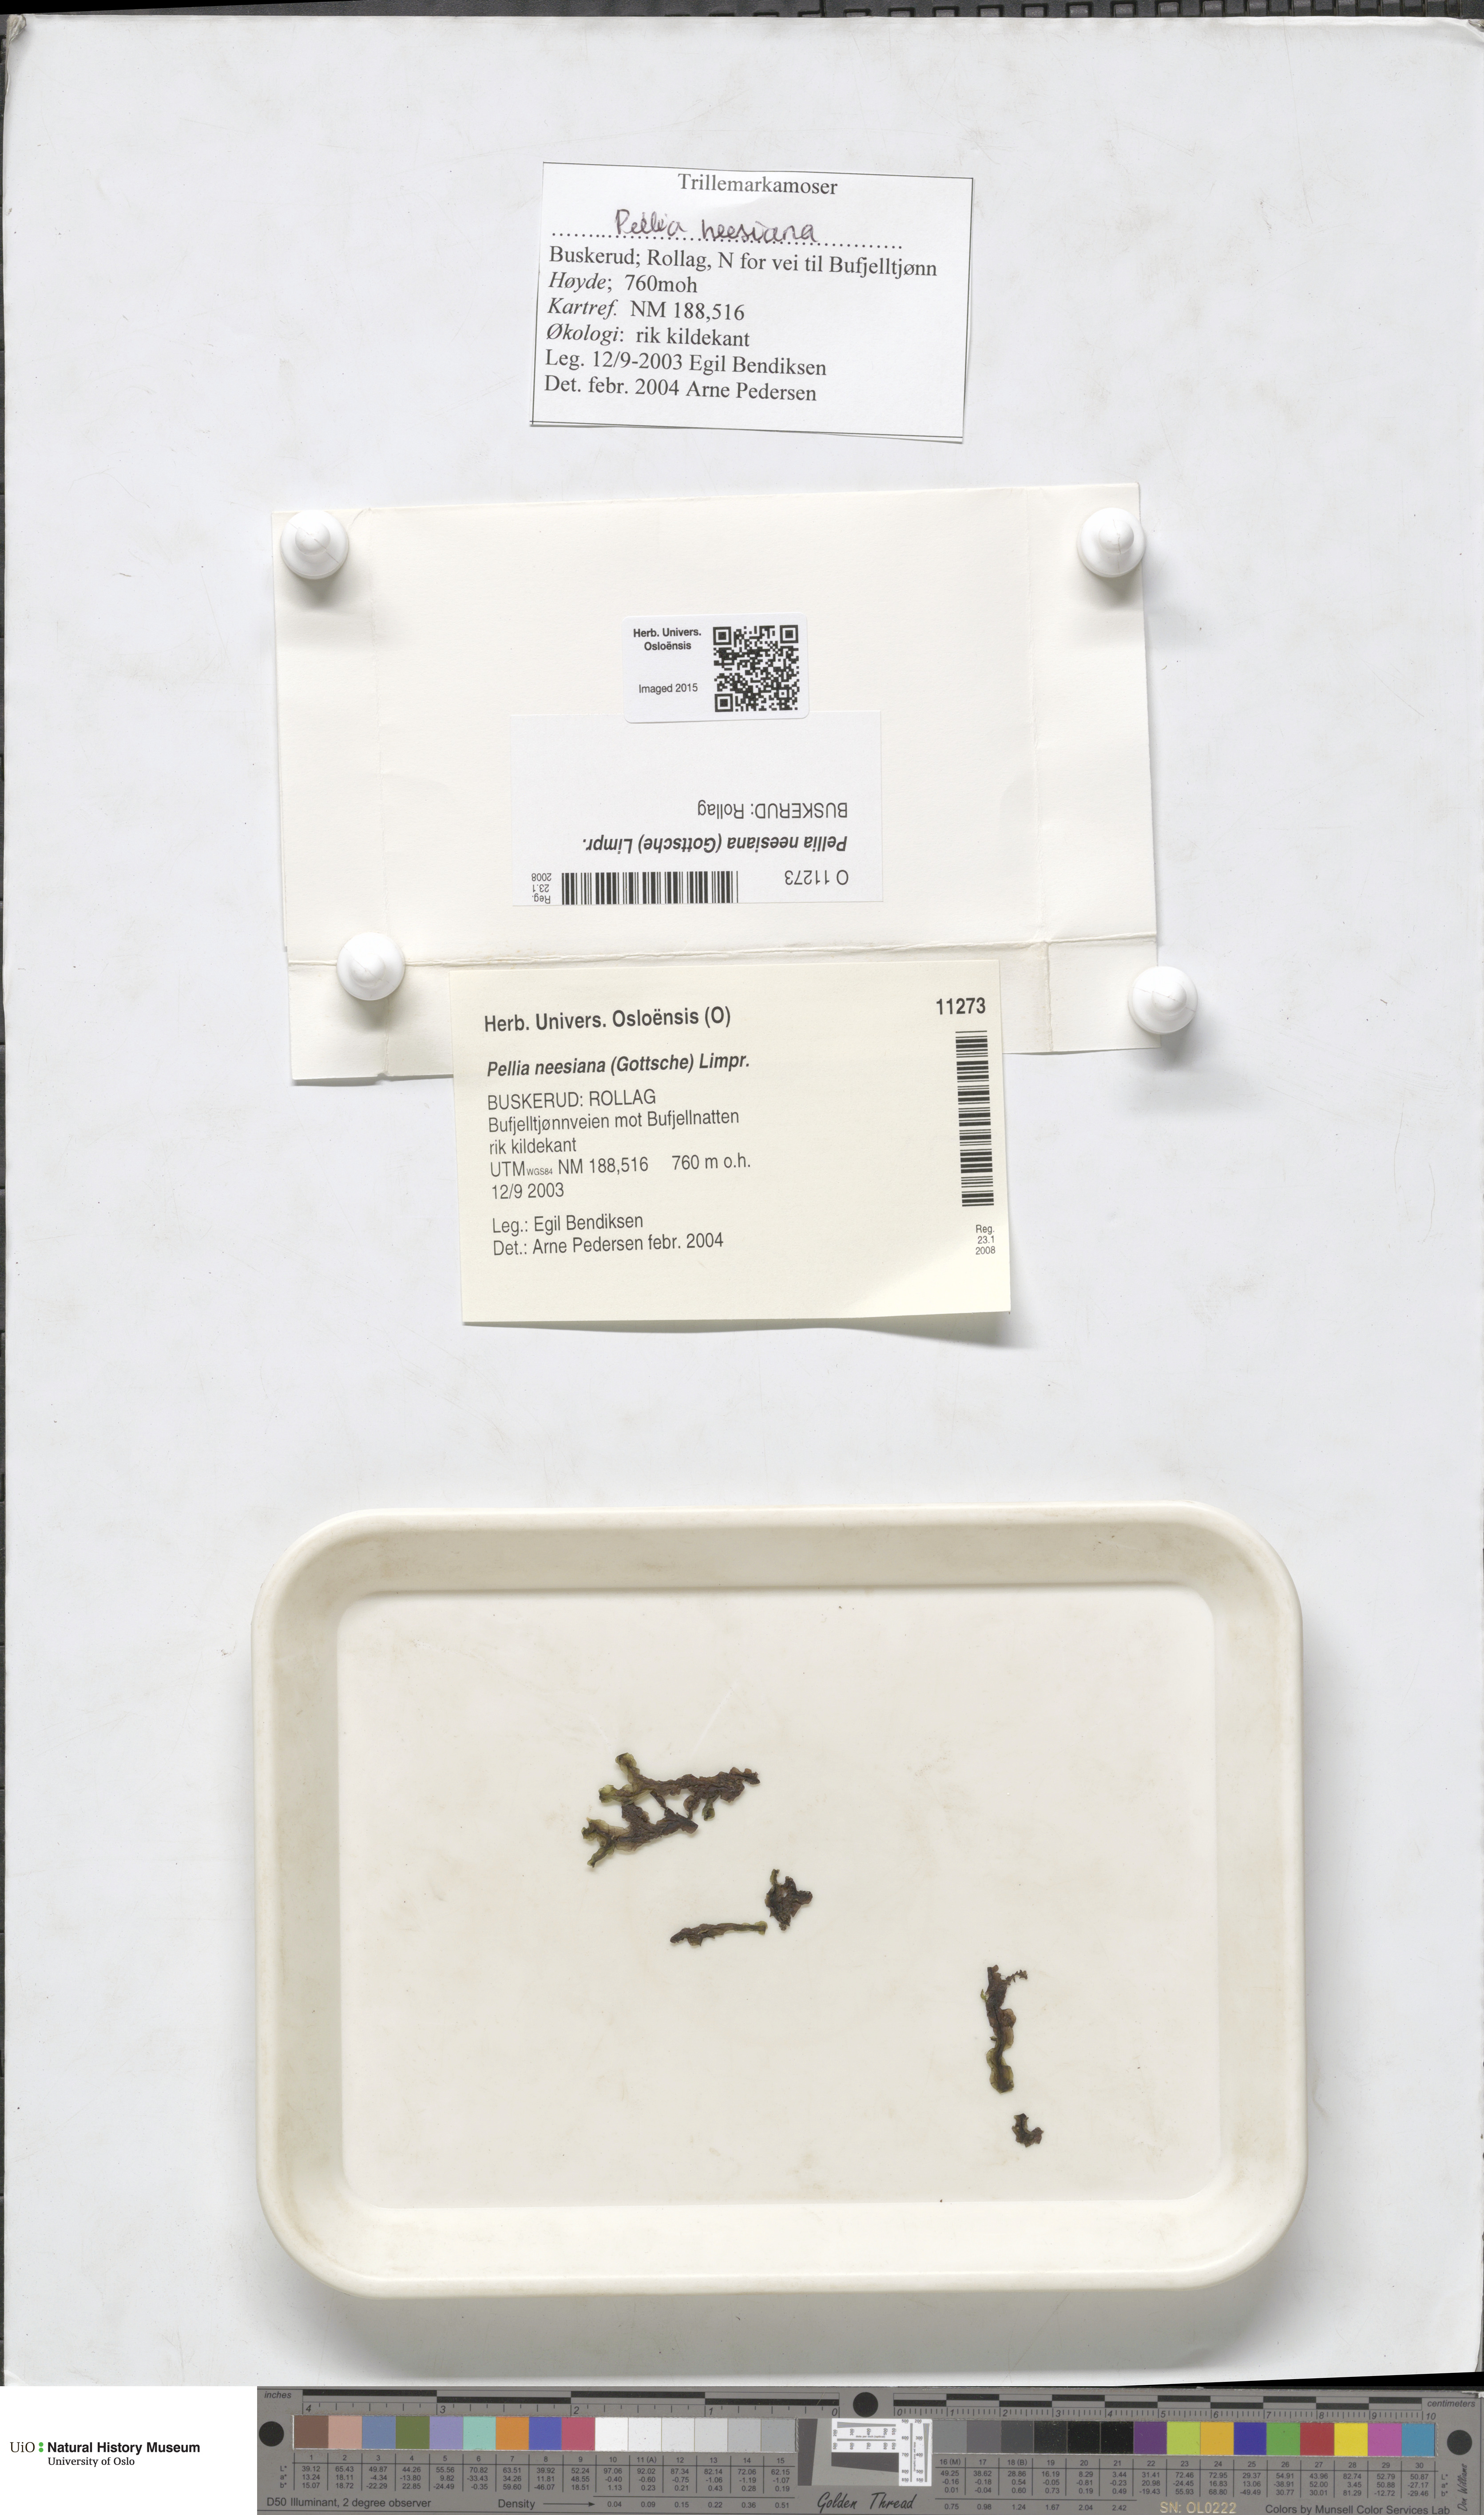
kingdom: Plantae
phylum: Marchantiophyta
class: Jungermanniopsida
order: Pelliales
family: Pelliaceae
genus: Pellia
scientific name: Pellia neesiana
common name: Nees  pellia
